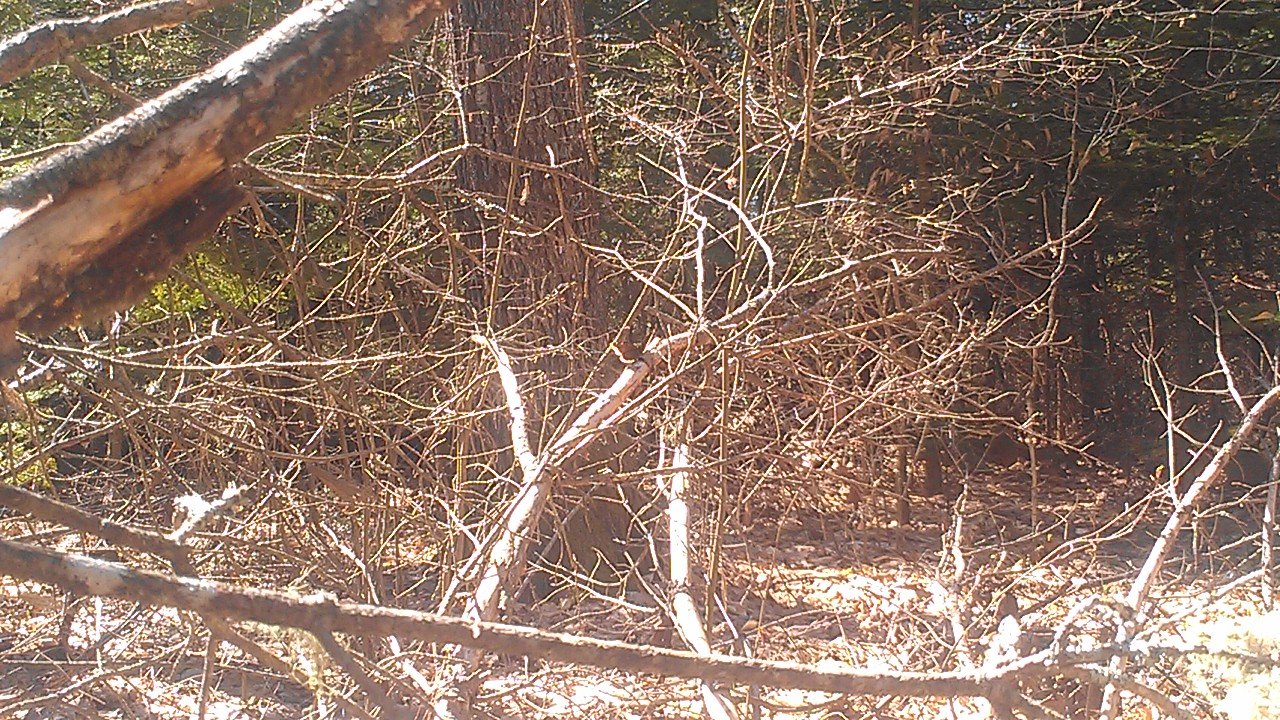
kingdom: Animalia
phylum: Arthropoda
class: Insecta
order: Lepidoptera
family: Nymphalidae
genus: Nymphalis
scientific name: Nymphalis antiopa
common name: Mourning Cloak
